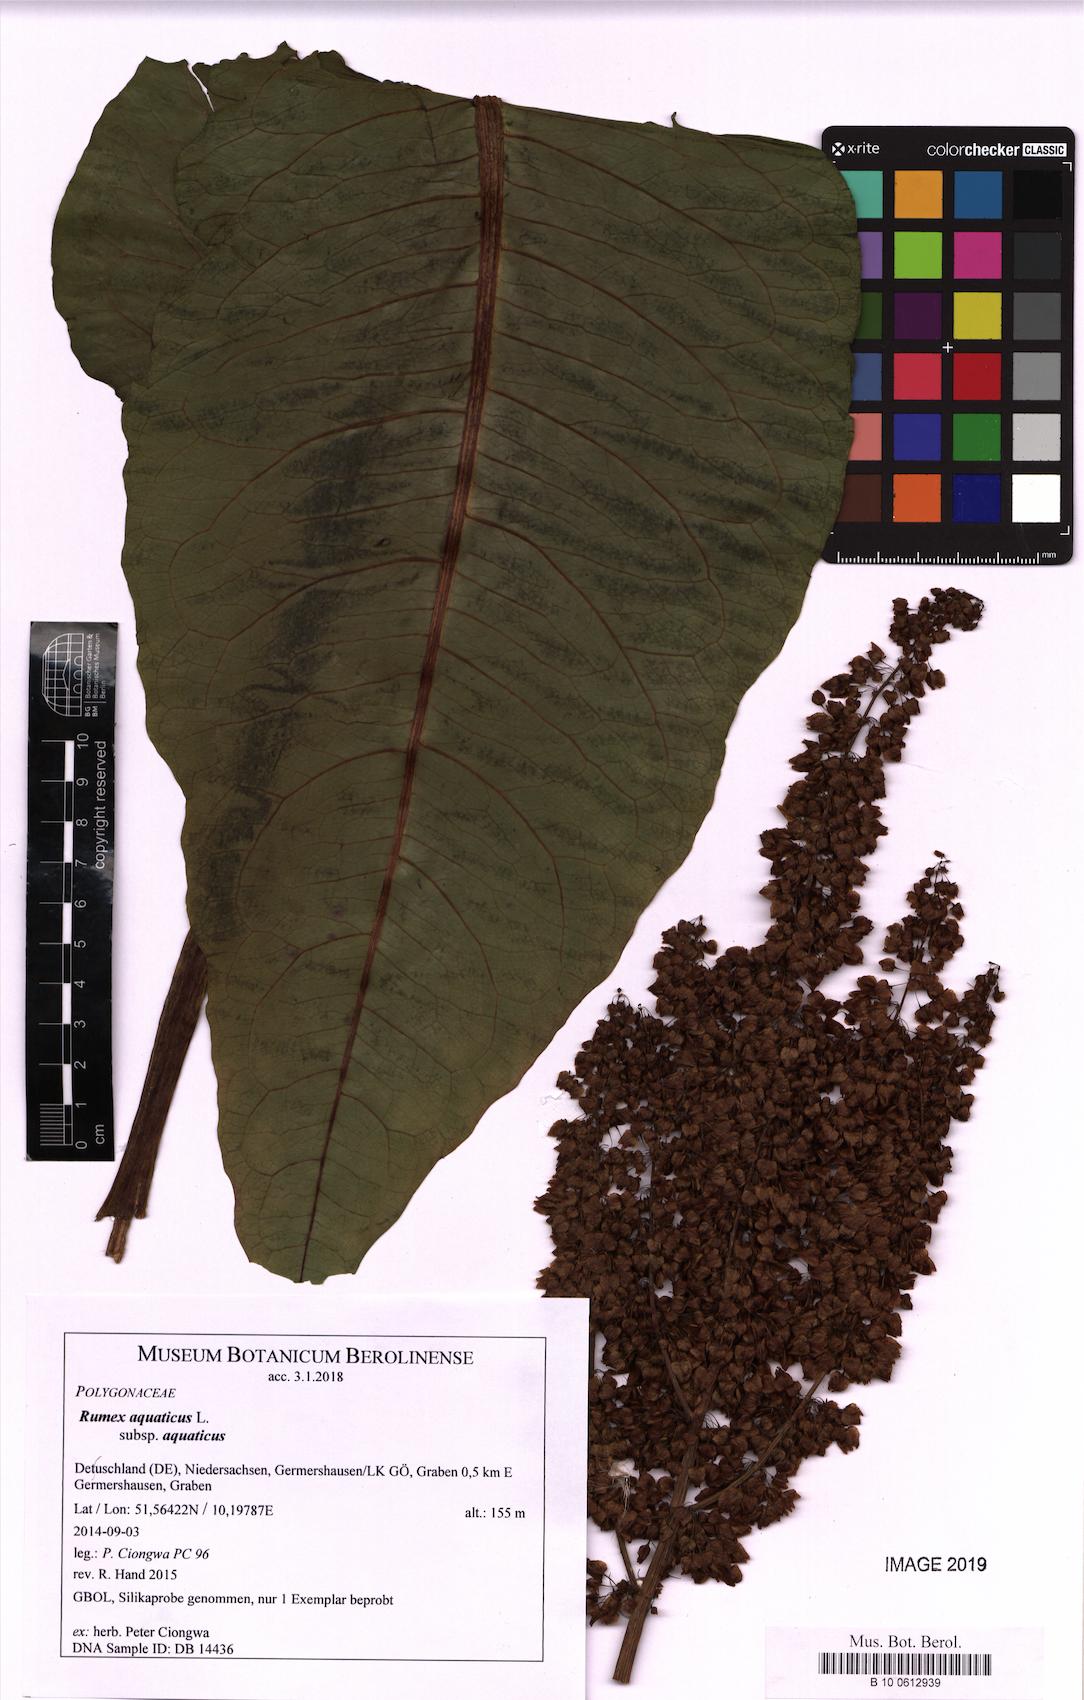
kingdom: Plantae
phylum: Tracheophyta
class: Magnoliopsida
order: Caryophyllales
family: Polygonaceae
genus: Rumex
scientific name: Rumex aquaticus
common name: Scottish dock
